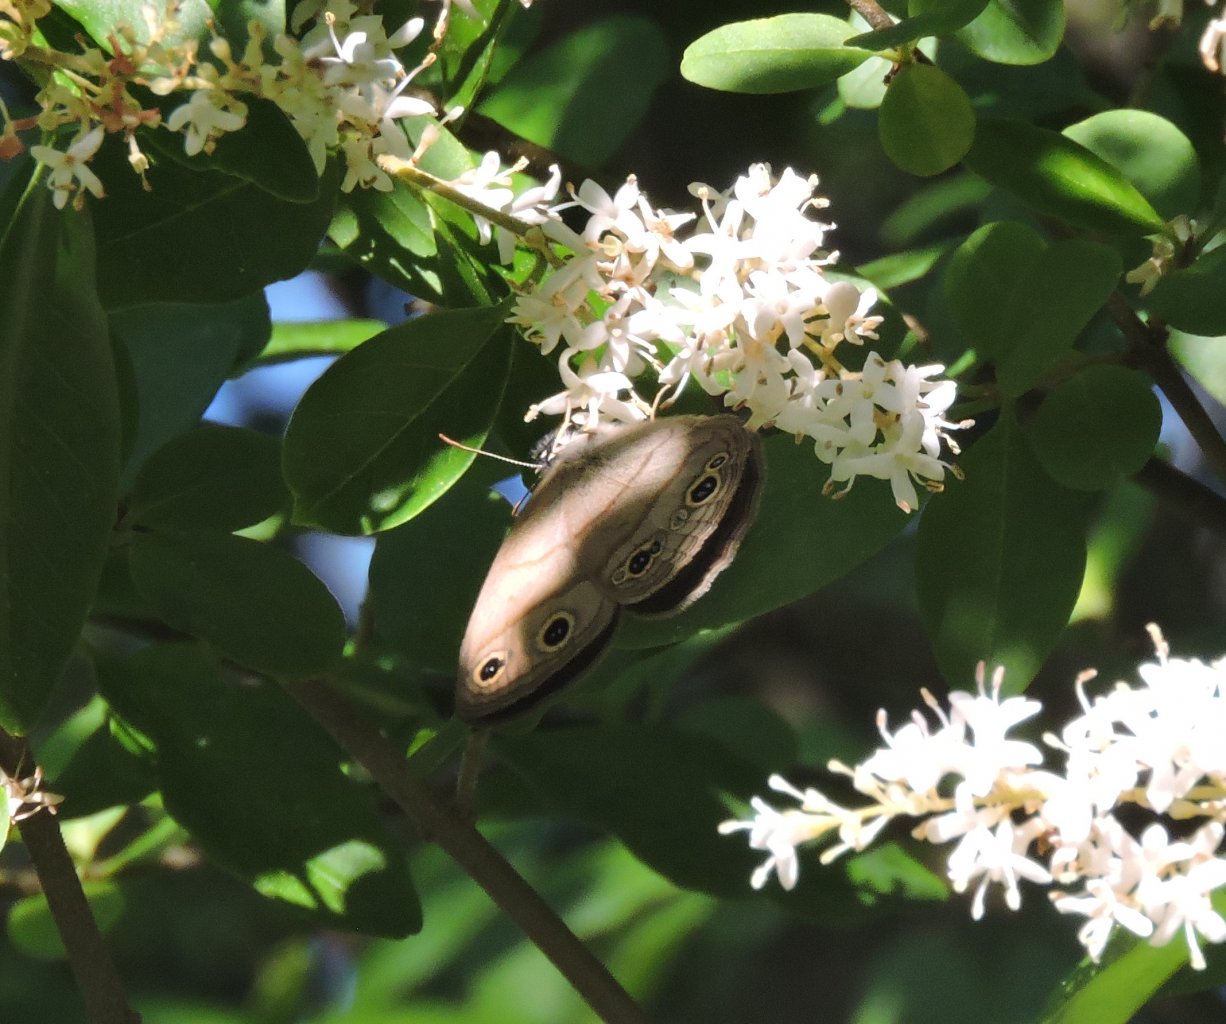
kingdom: Animalia
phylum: Arthropoda
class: Insecta
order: Lepidoptera
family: Nymphalidae
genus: Euptychia
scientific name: Euptychia cymela
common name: Little Wood Satyr
